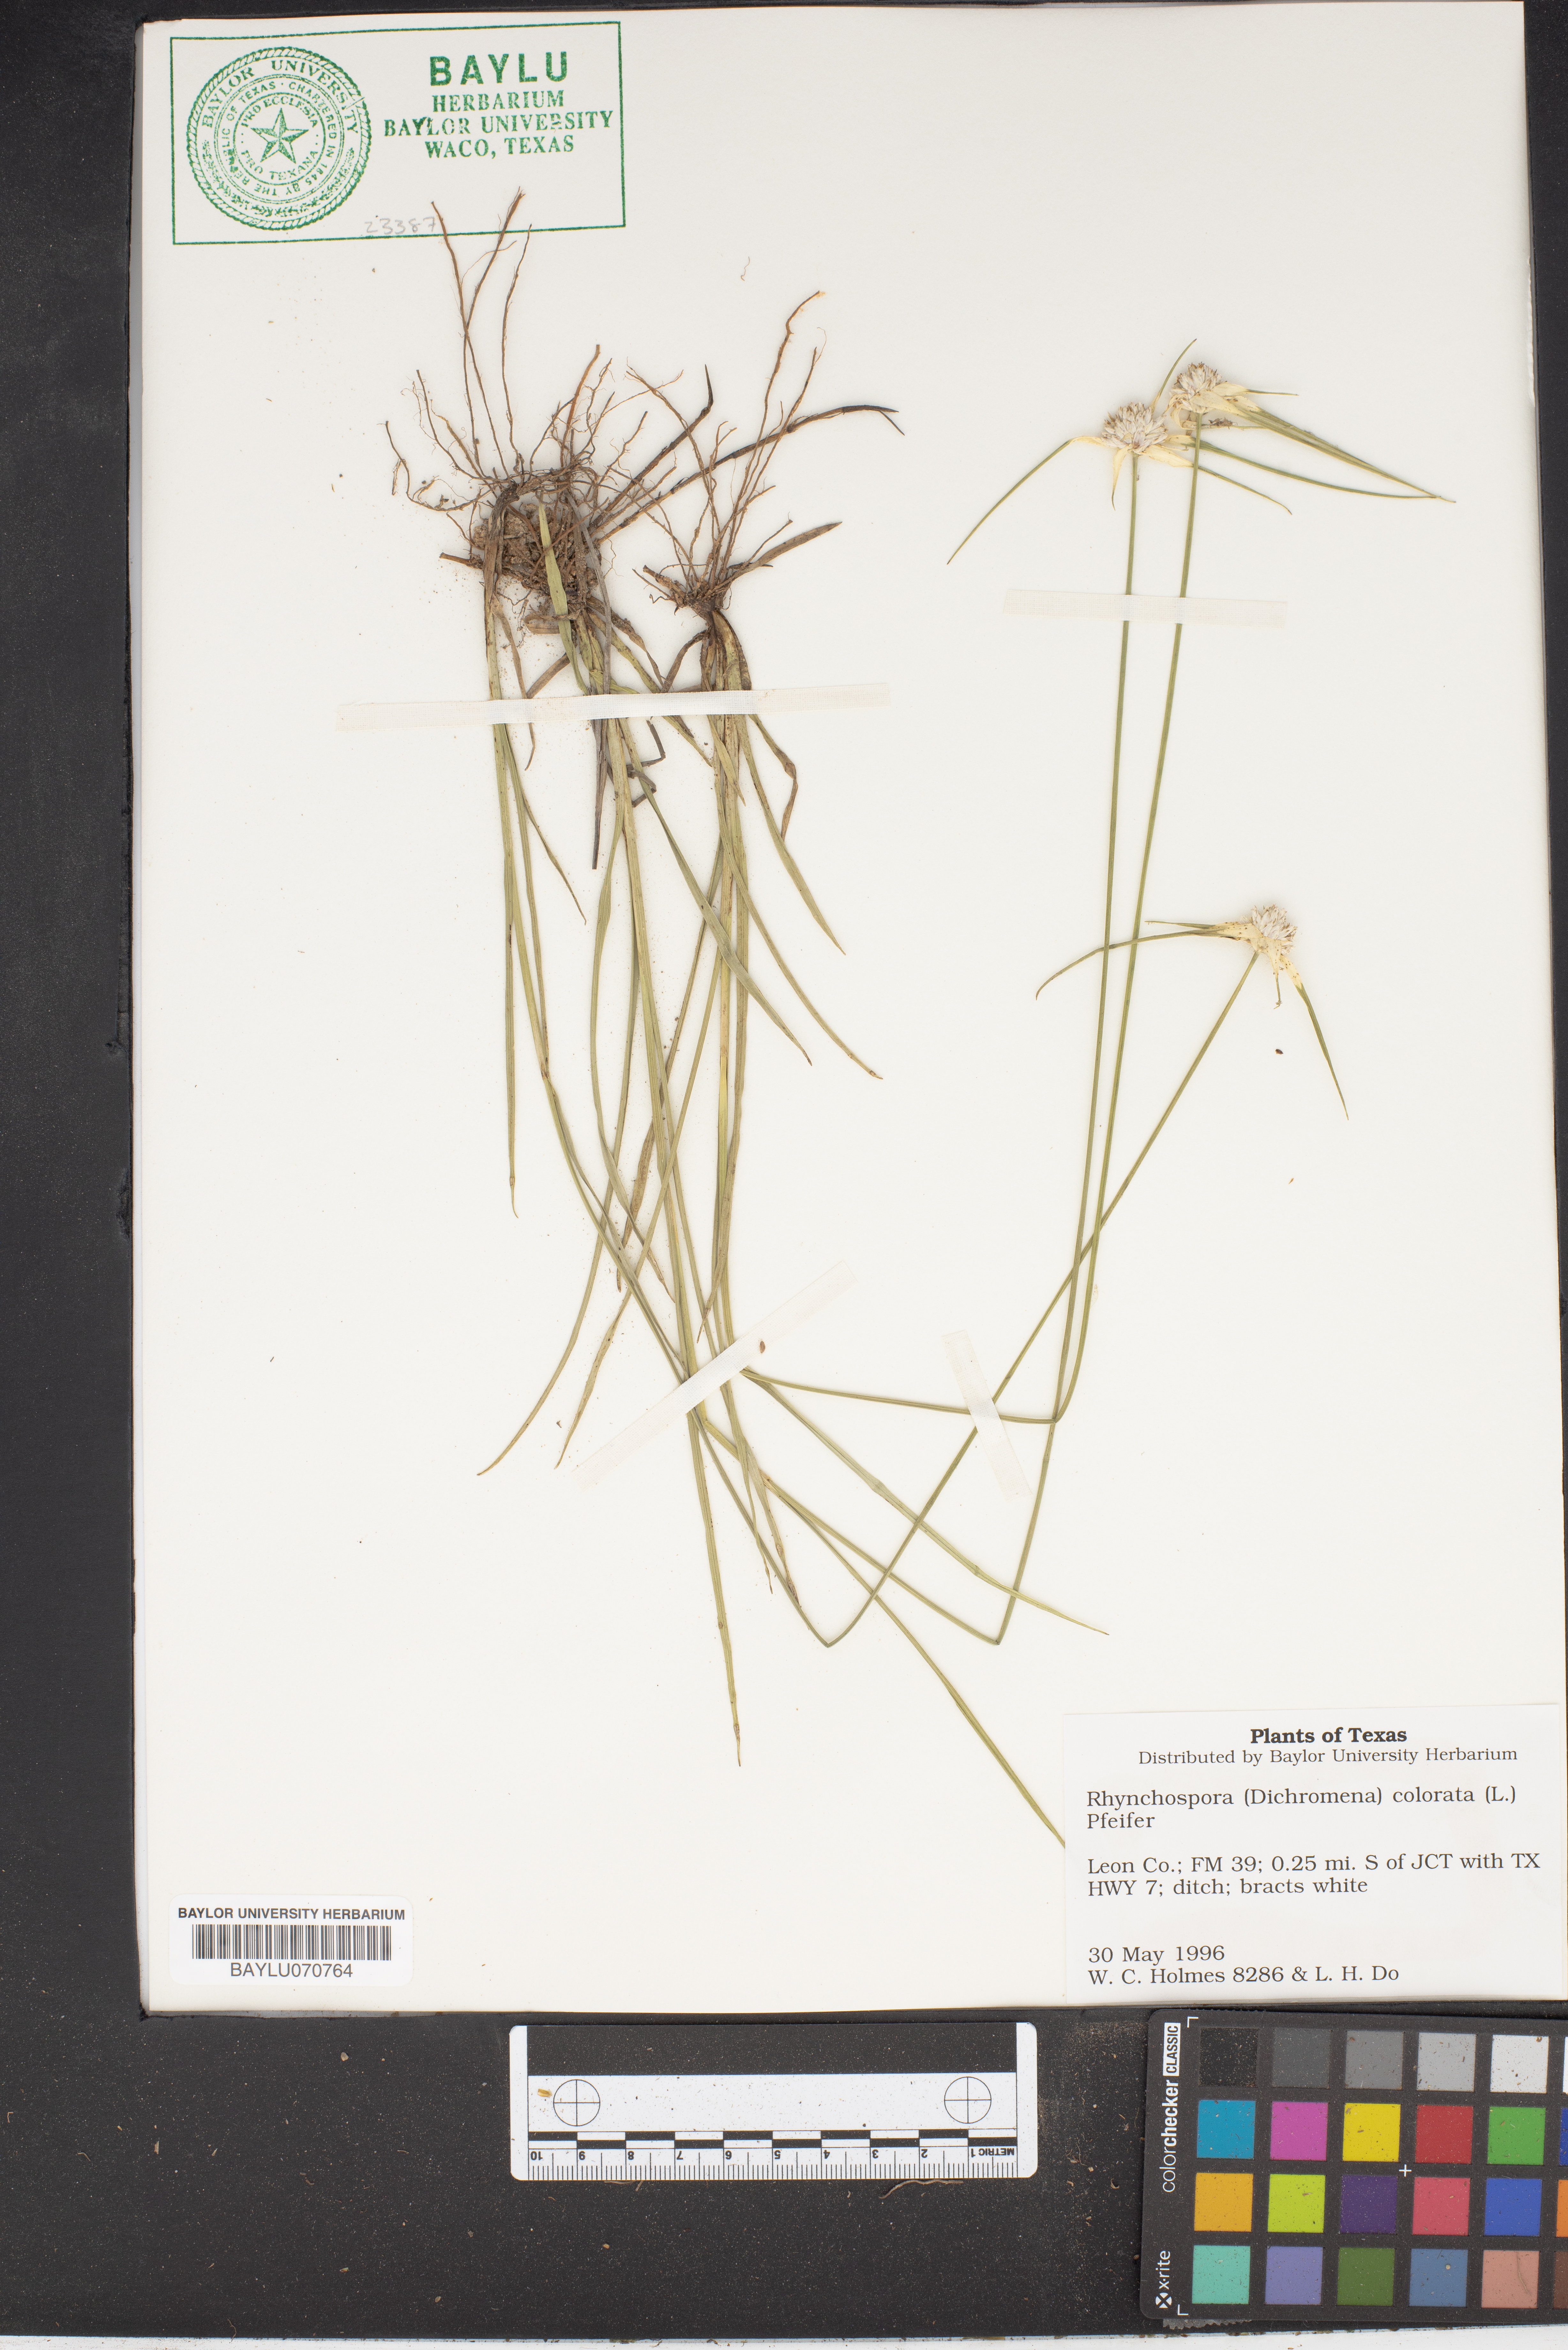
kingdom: Plantae
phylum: Tracheophyta
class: Liliopsida
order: Poales
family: Cyperaceae
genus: Rhynchospora
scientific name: Rhynchospora colorata
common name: Star sedge
